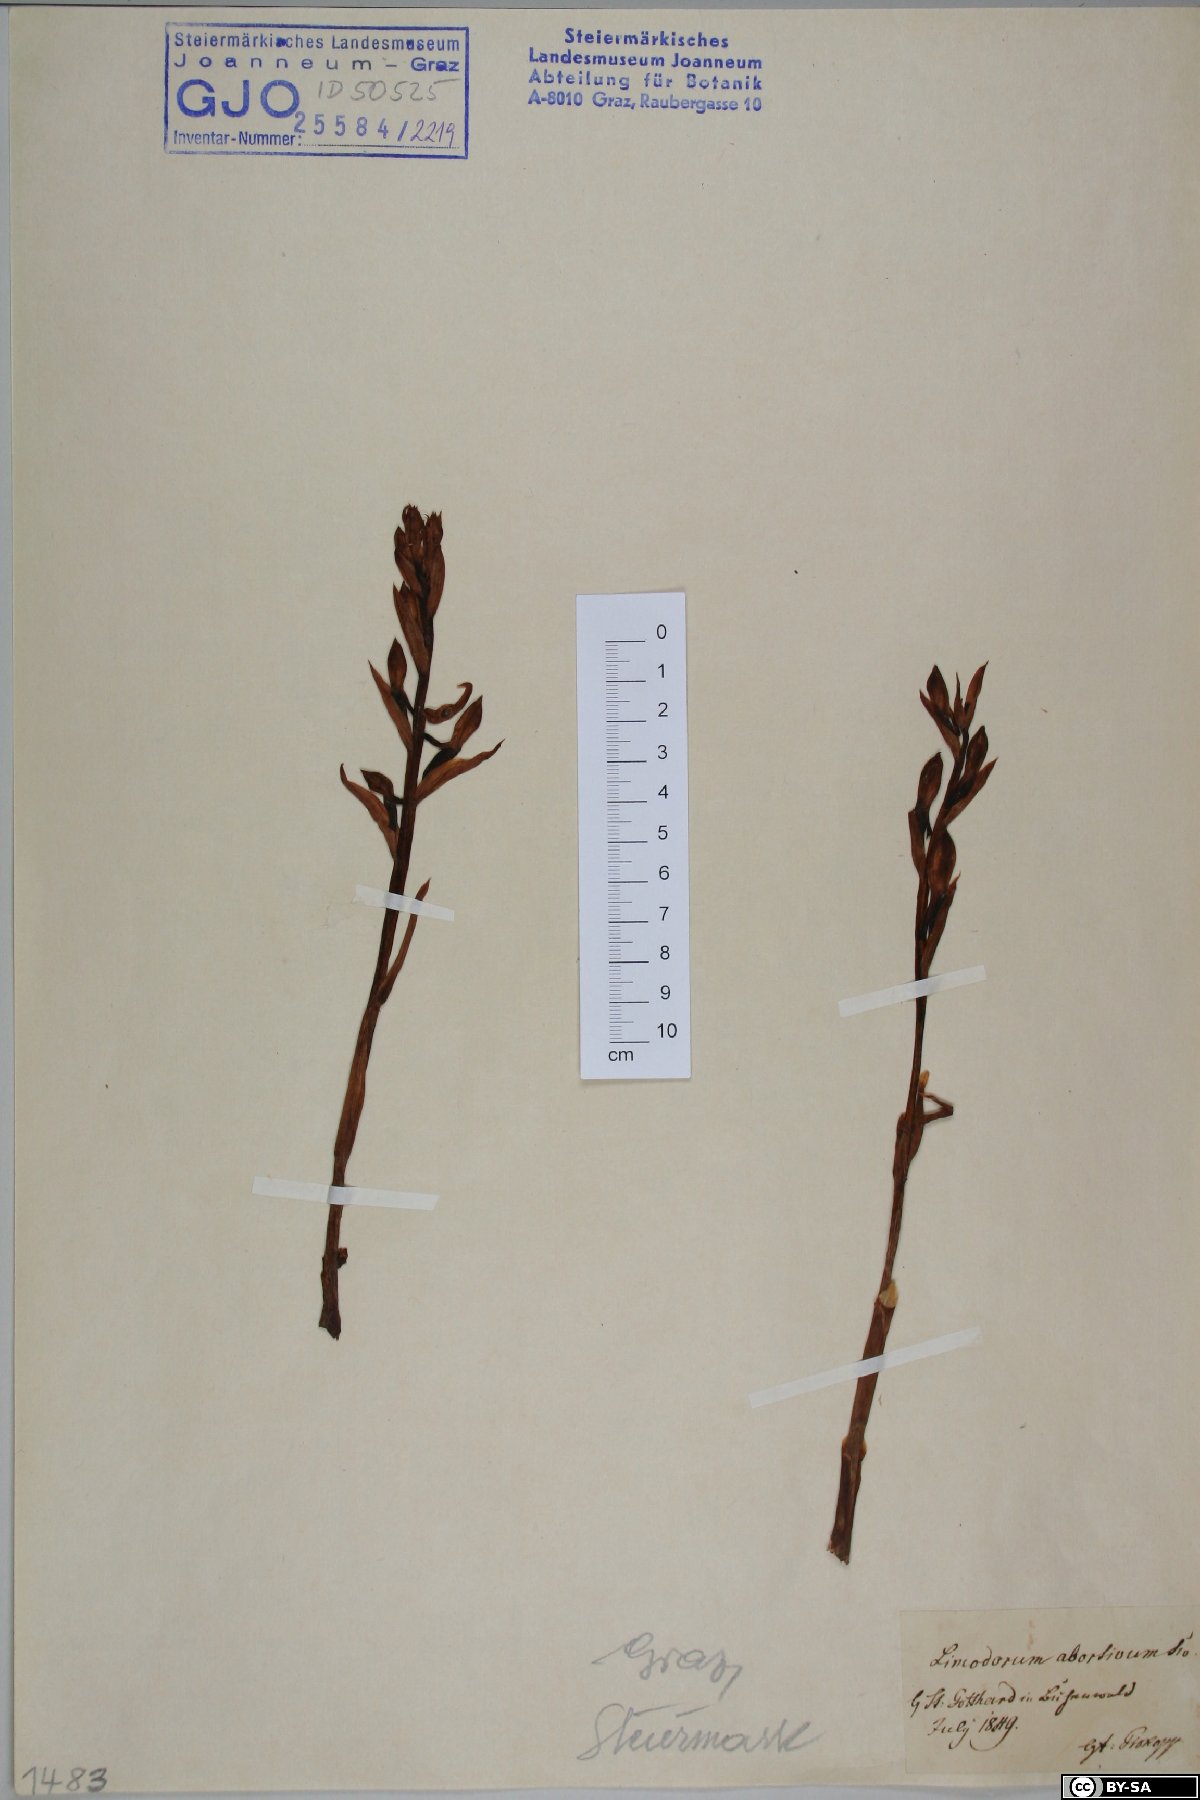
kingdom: Plantae
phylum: Tracheophyta
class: Liliopsida
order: Asparagales
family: Orchidaceae
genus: Limodorum
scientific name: Limodorum abortivum
